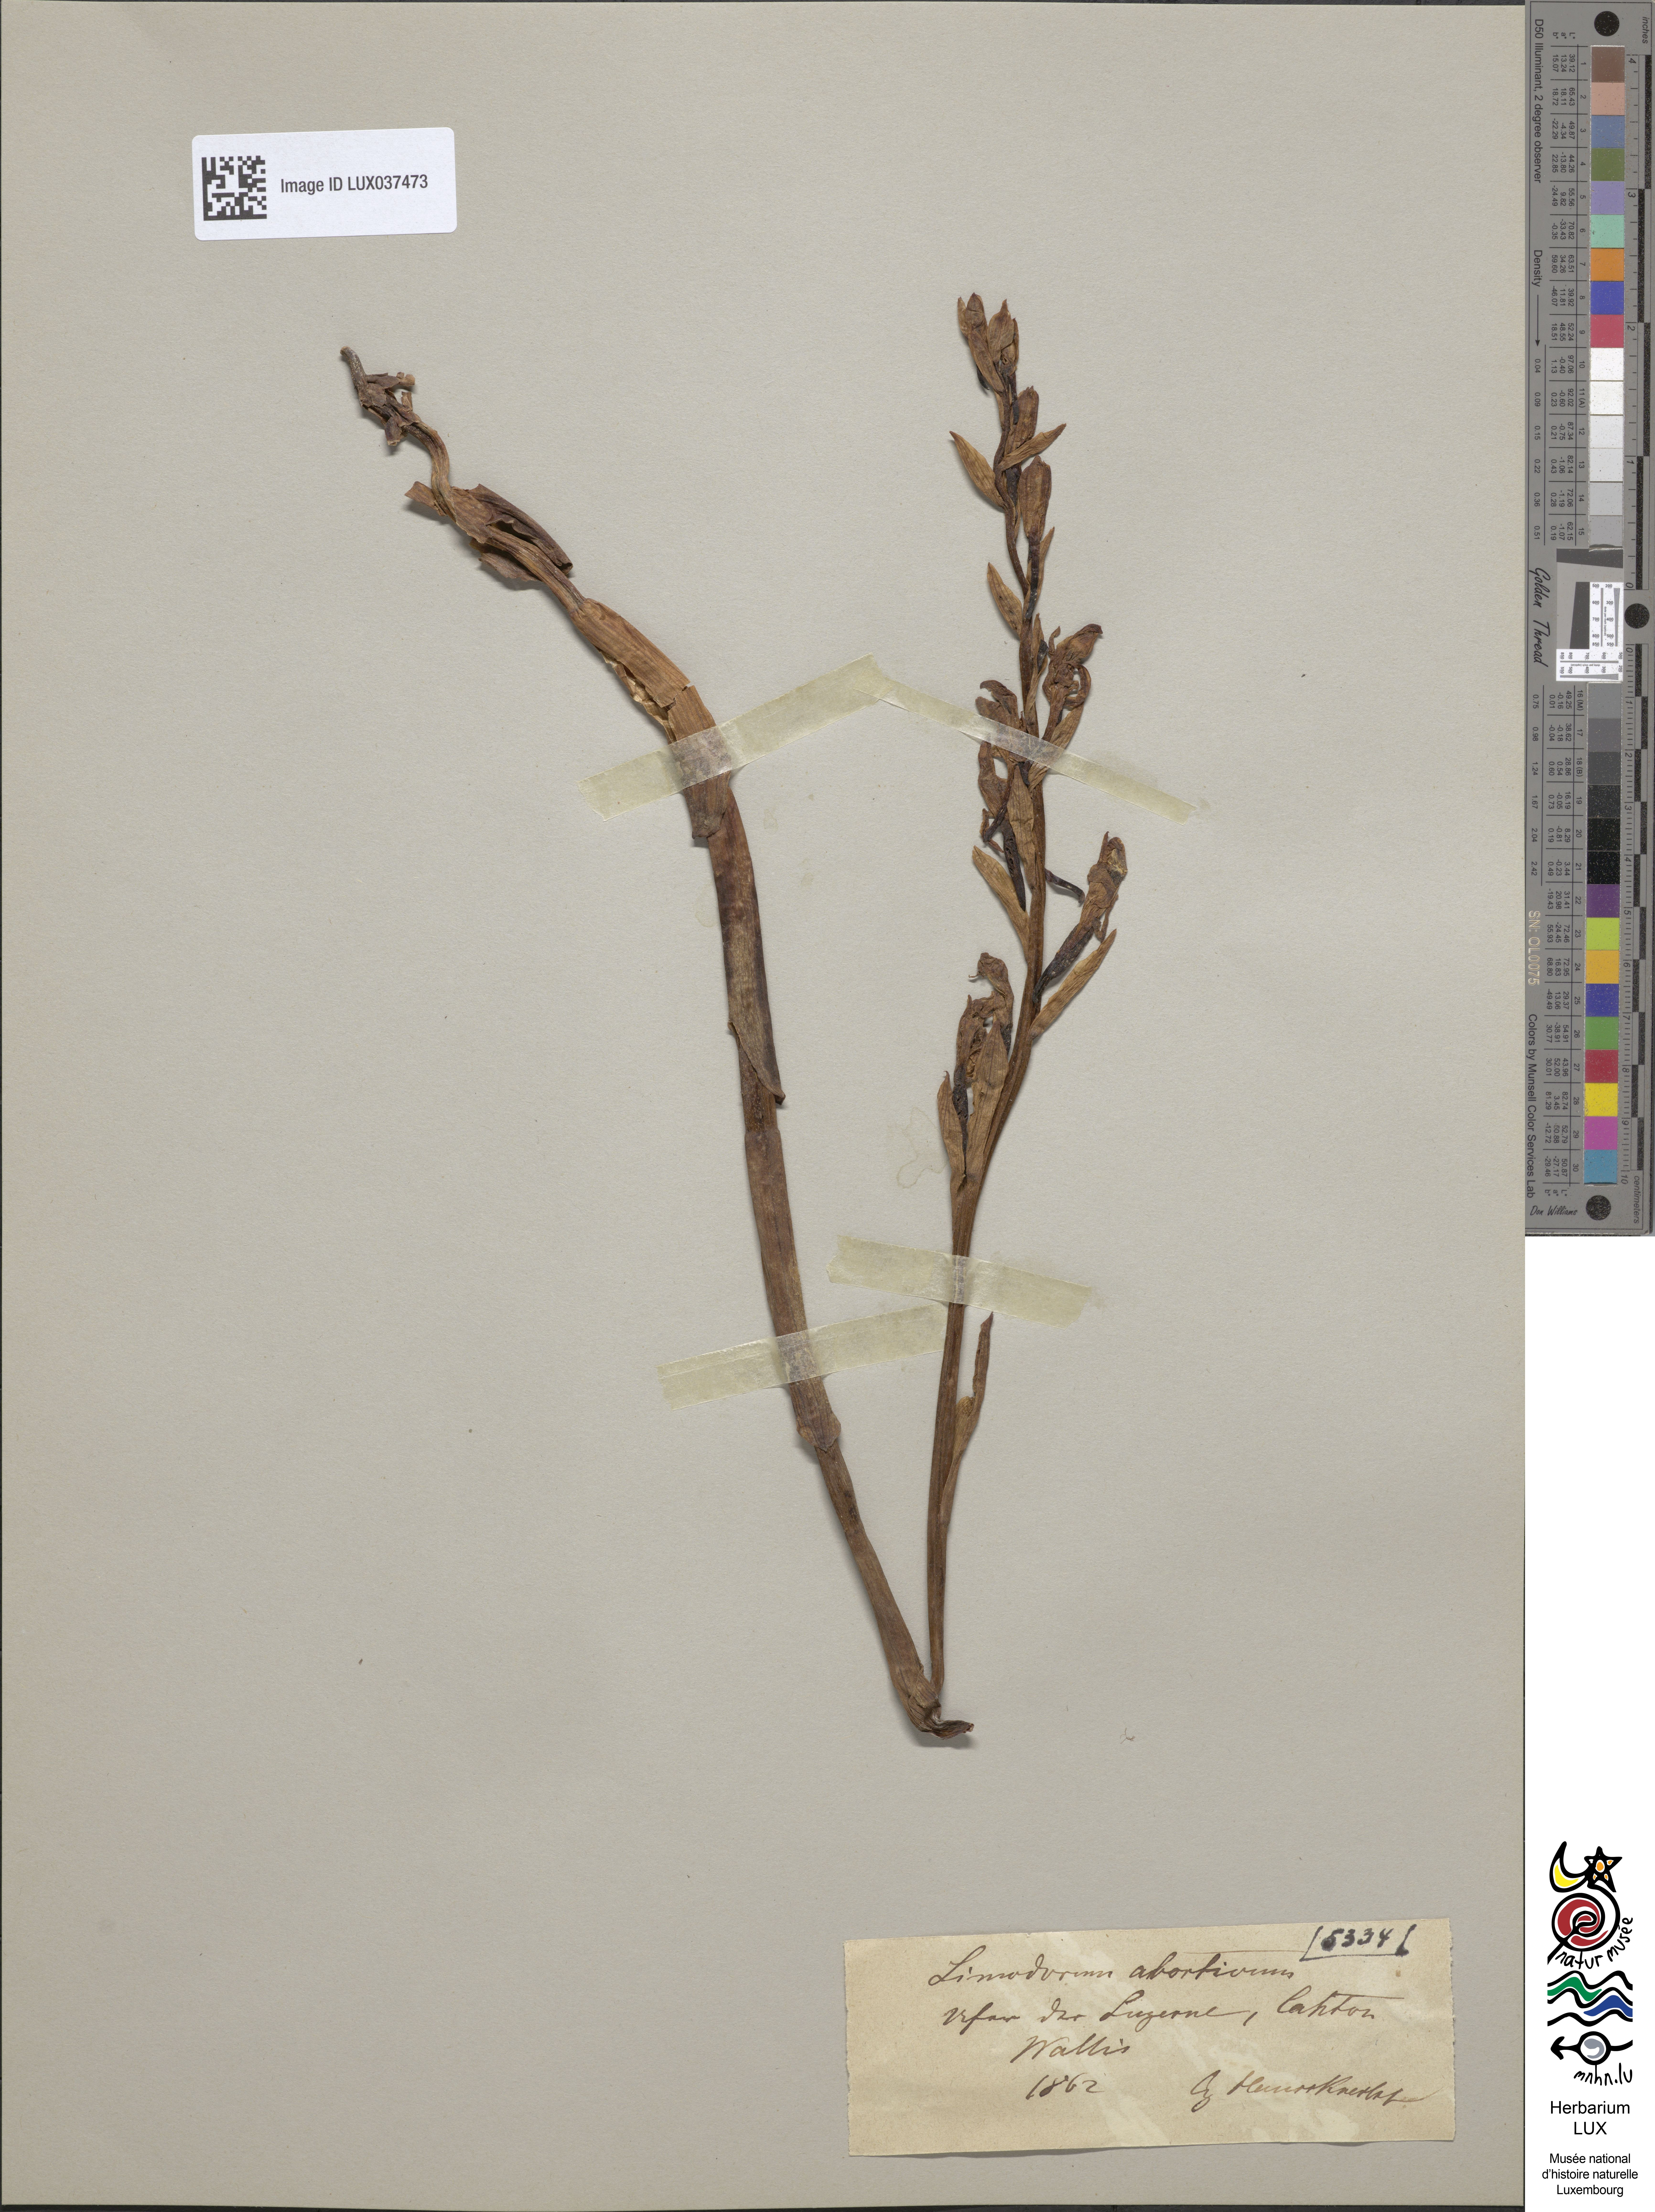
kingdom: Plantae
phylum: Tracheophyta
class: Liliopsida
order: Asparagales
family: Orchidaceae
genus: Limodorum
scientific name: Limodorum abortivum
